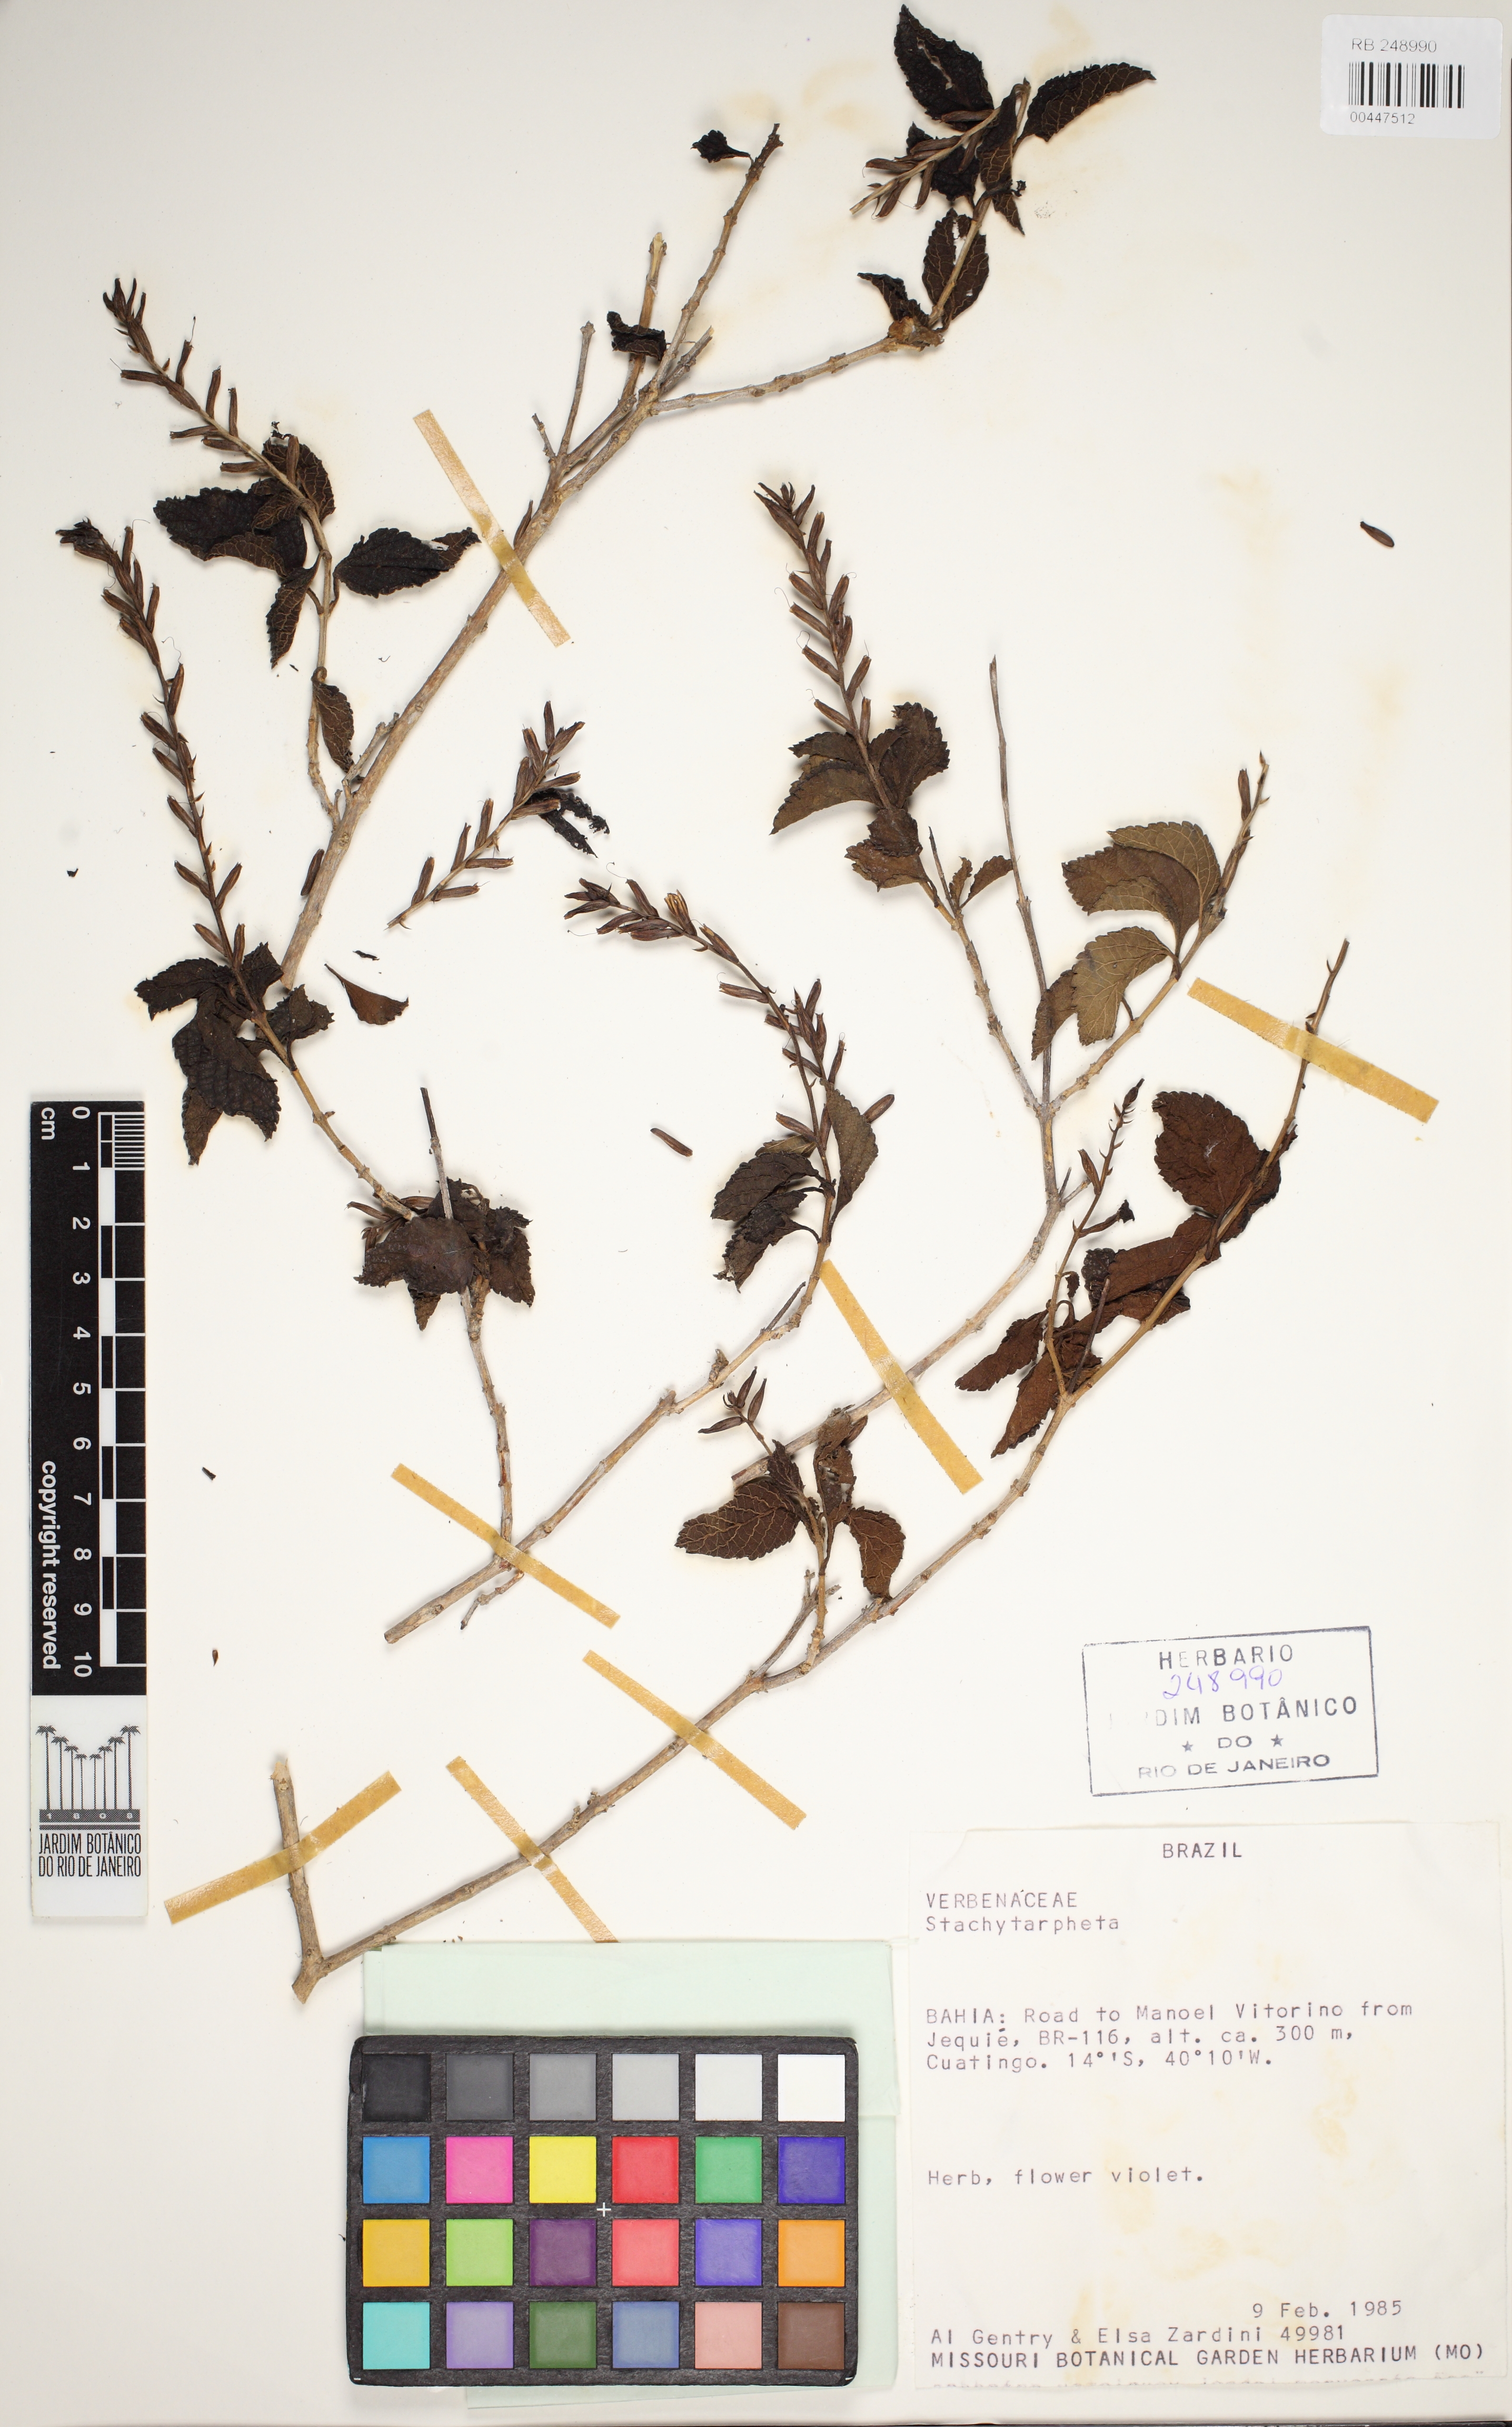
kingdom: Plantae
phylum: Tracheophyta
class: Magnoliopsida
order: Lamiales
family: Verbenaceae
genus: Stachytarpheta
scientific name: Stachytarpheta brasiliensis
